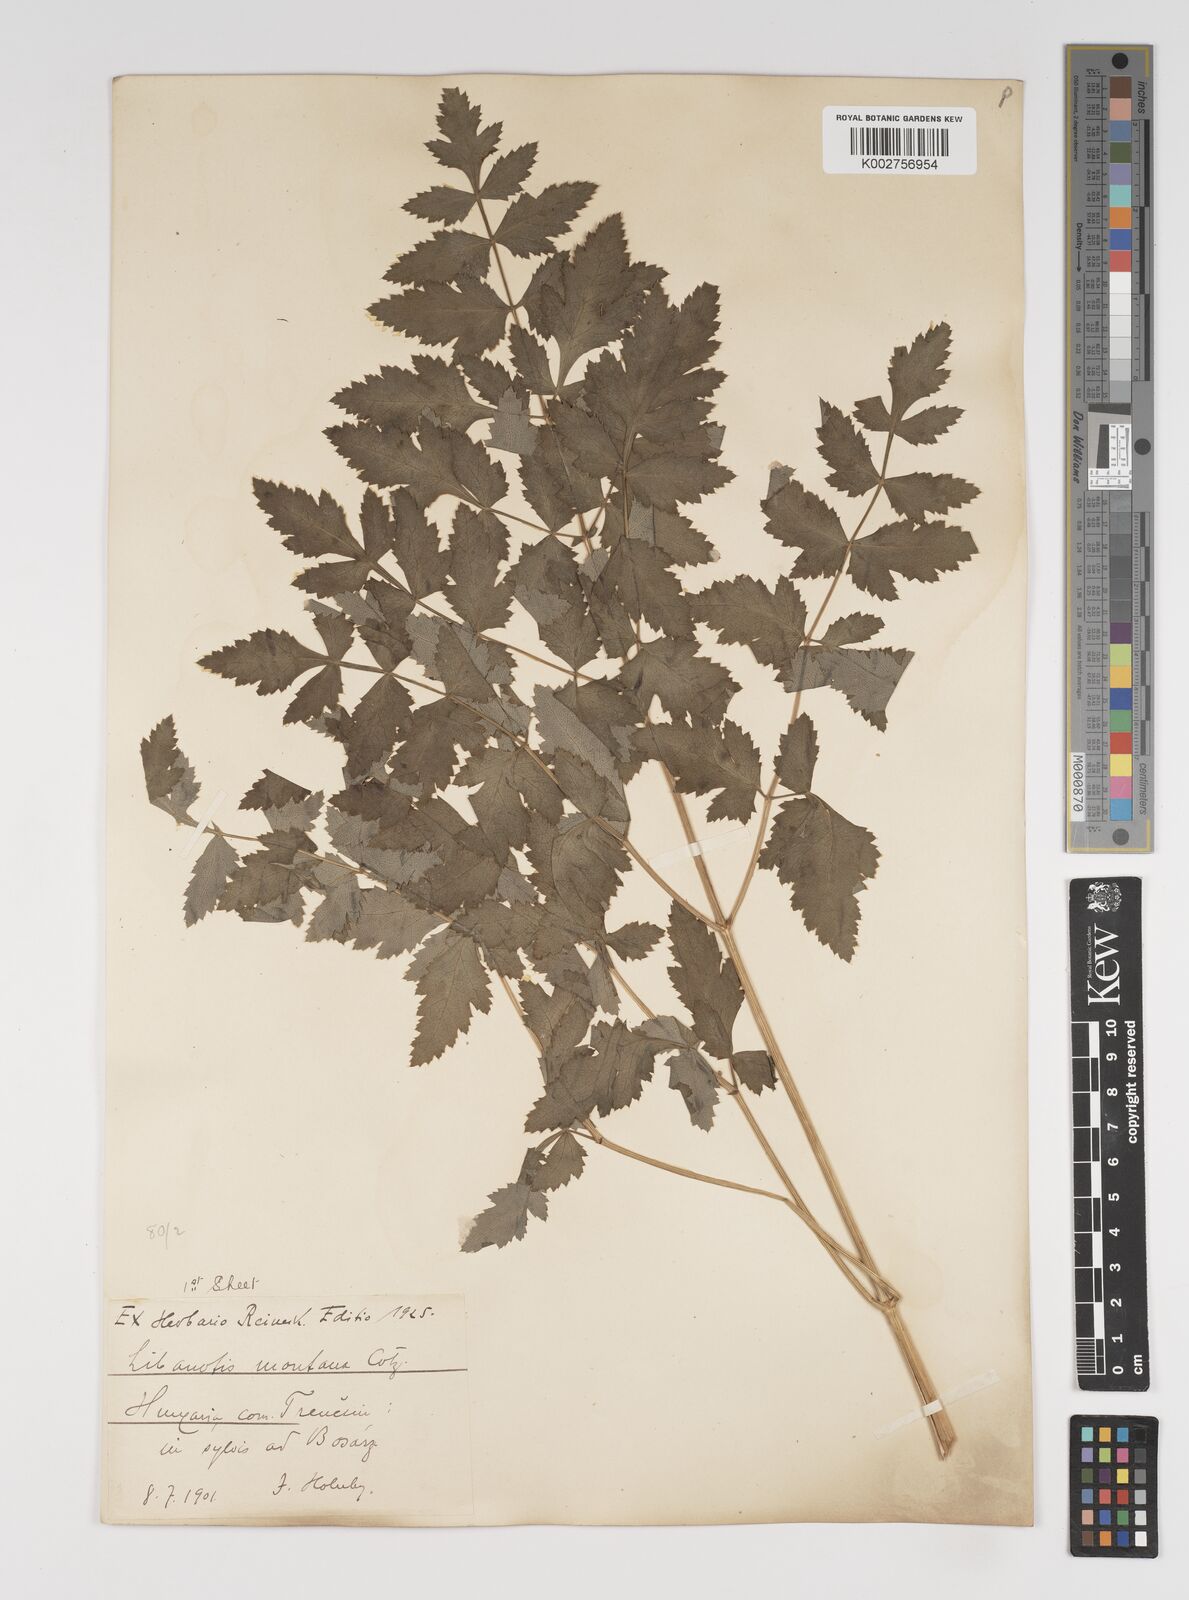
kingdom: Plantae
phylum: Tracheophyta
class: Magnoliopsida
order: Apiales
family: Apiaceae
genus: Seseli
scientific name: Seseli libanotis
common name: Mooncarrot
